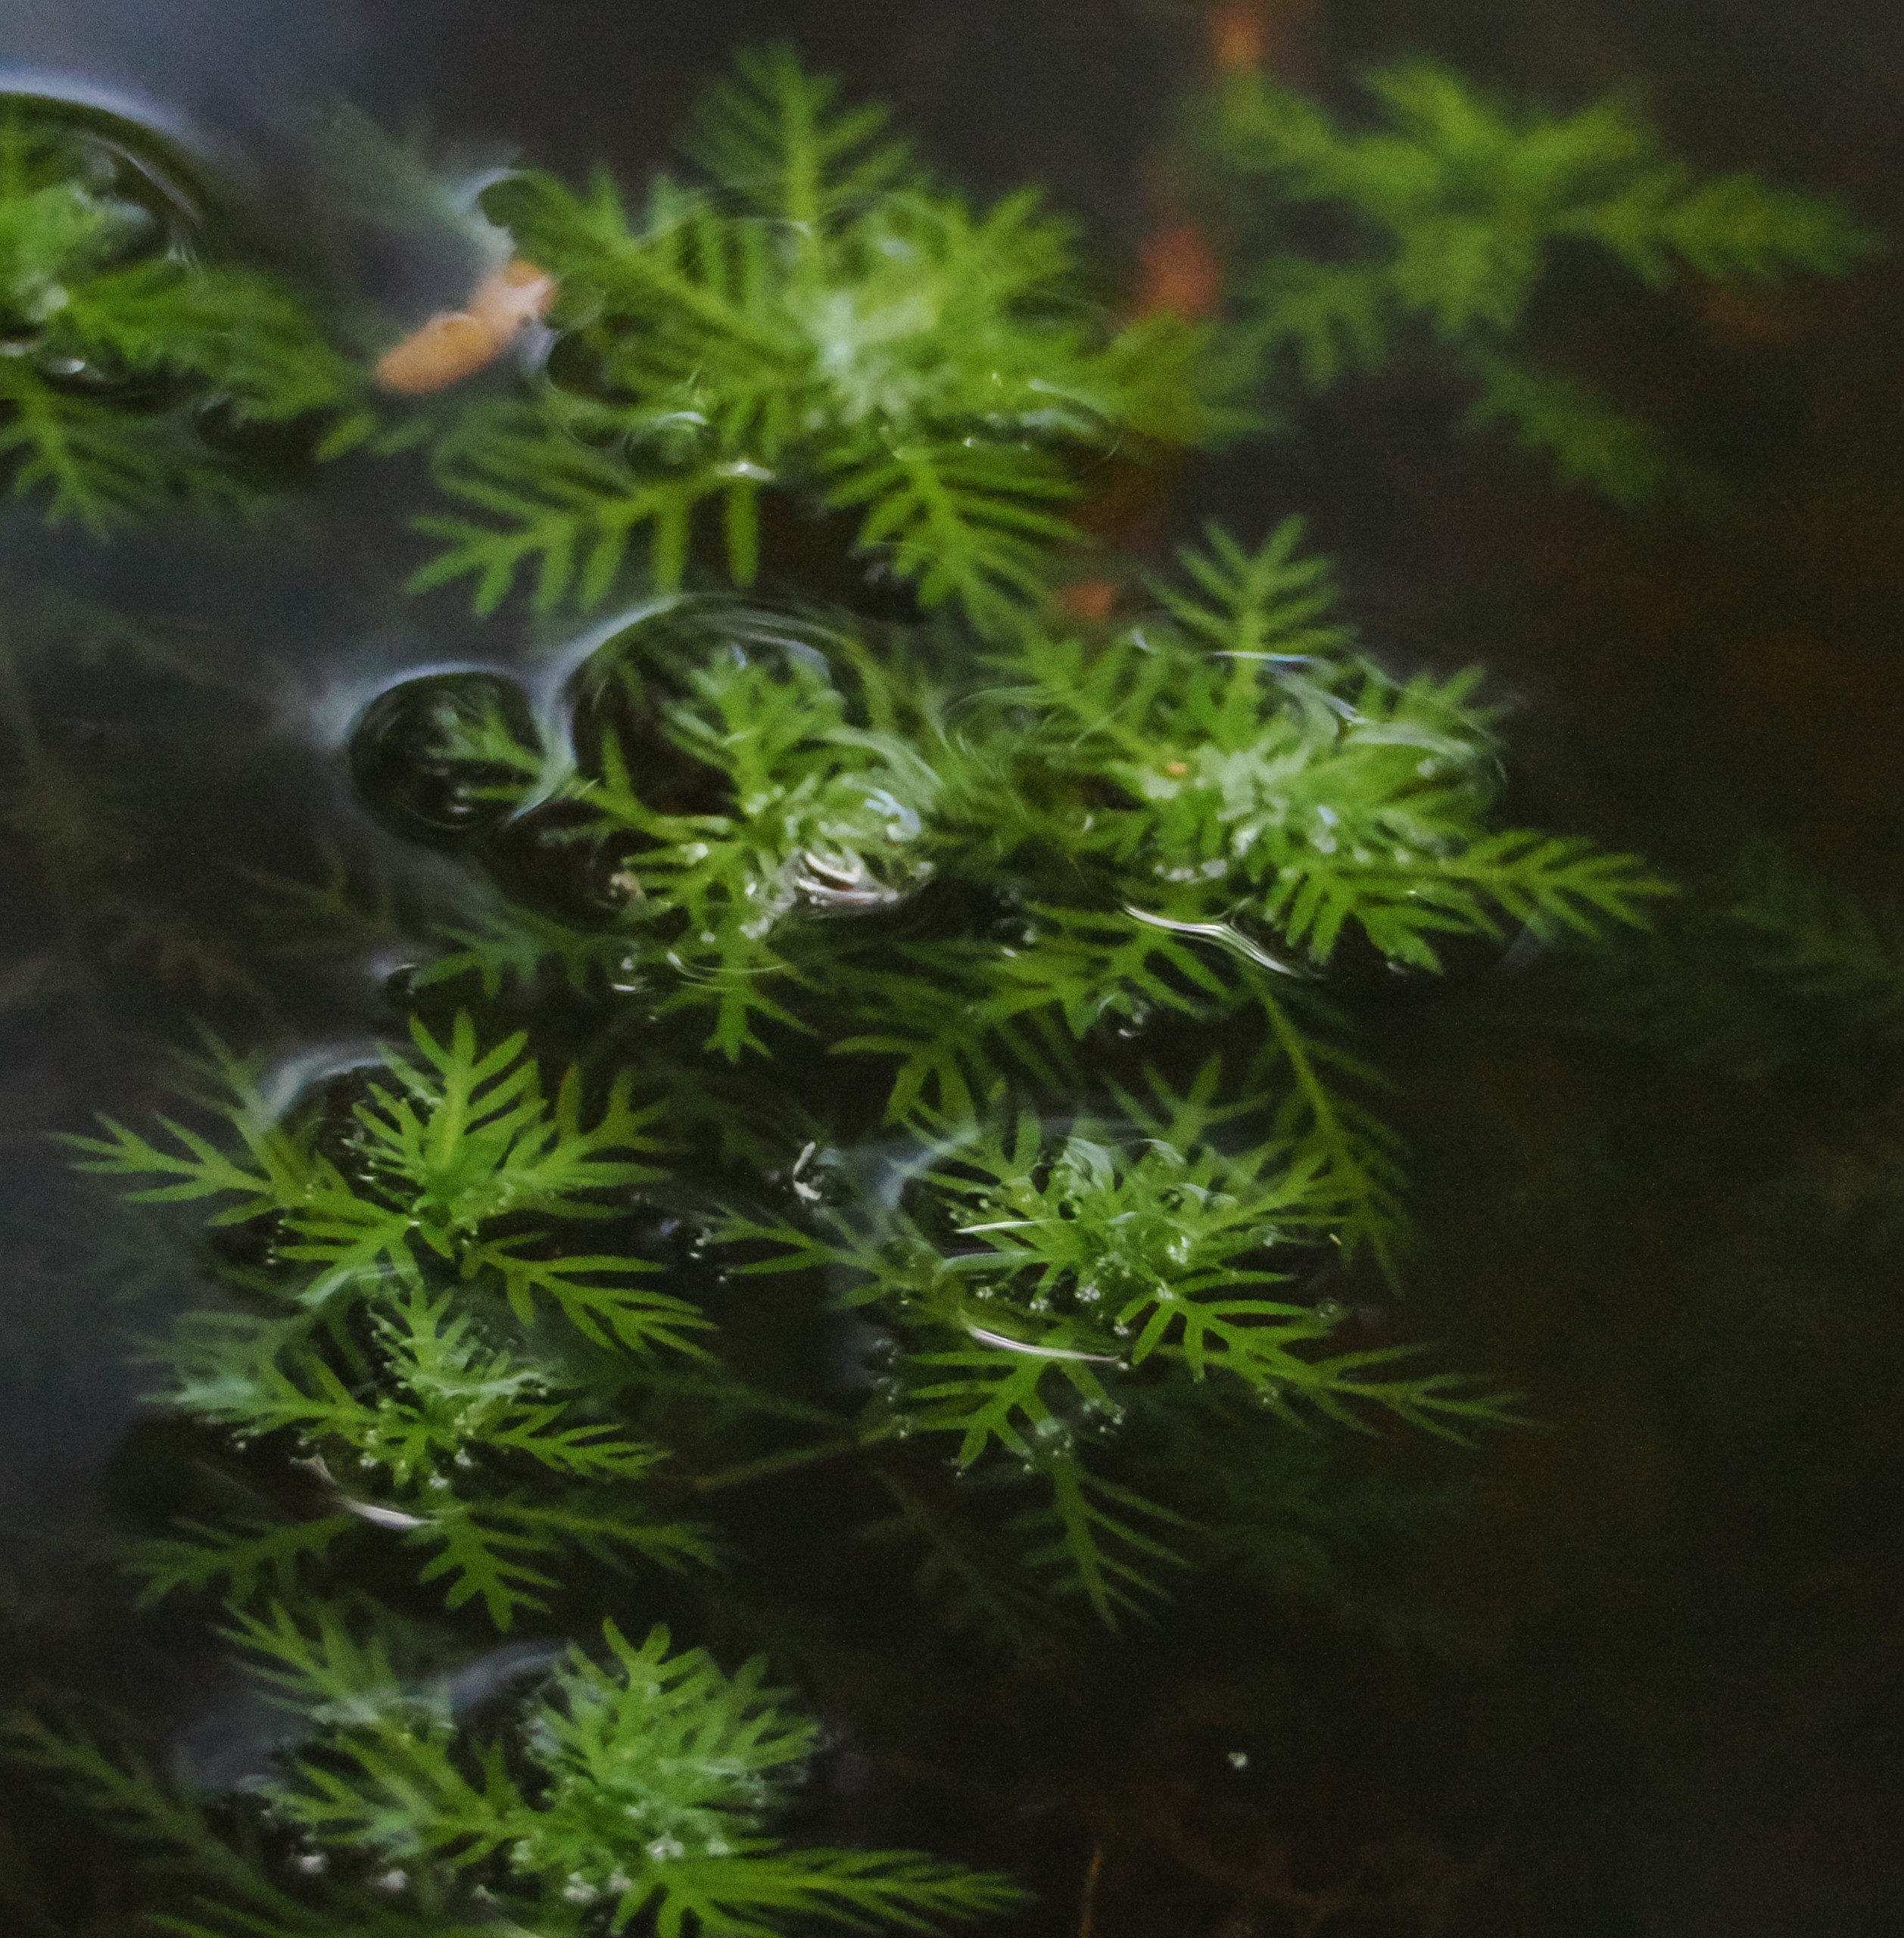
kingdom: Plantae
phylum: Tracheophyta
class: Magnoliopsida
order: Ericales
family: Primulaceae
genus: Hottonia
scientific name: Hottonia palustris
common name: Vandrøllike
